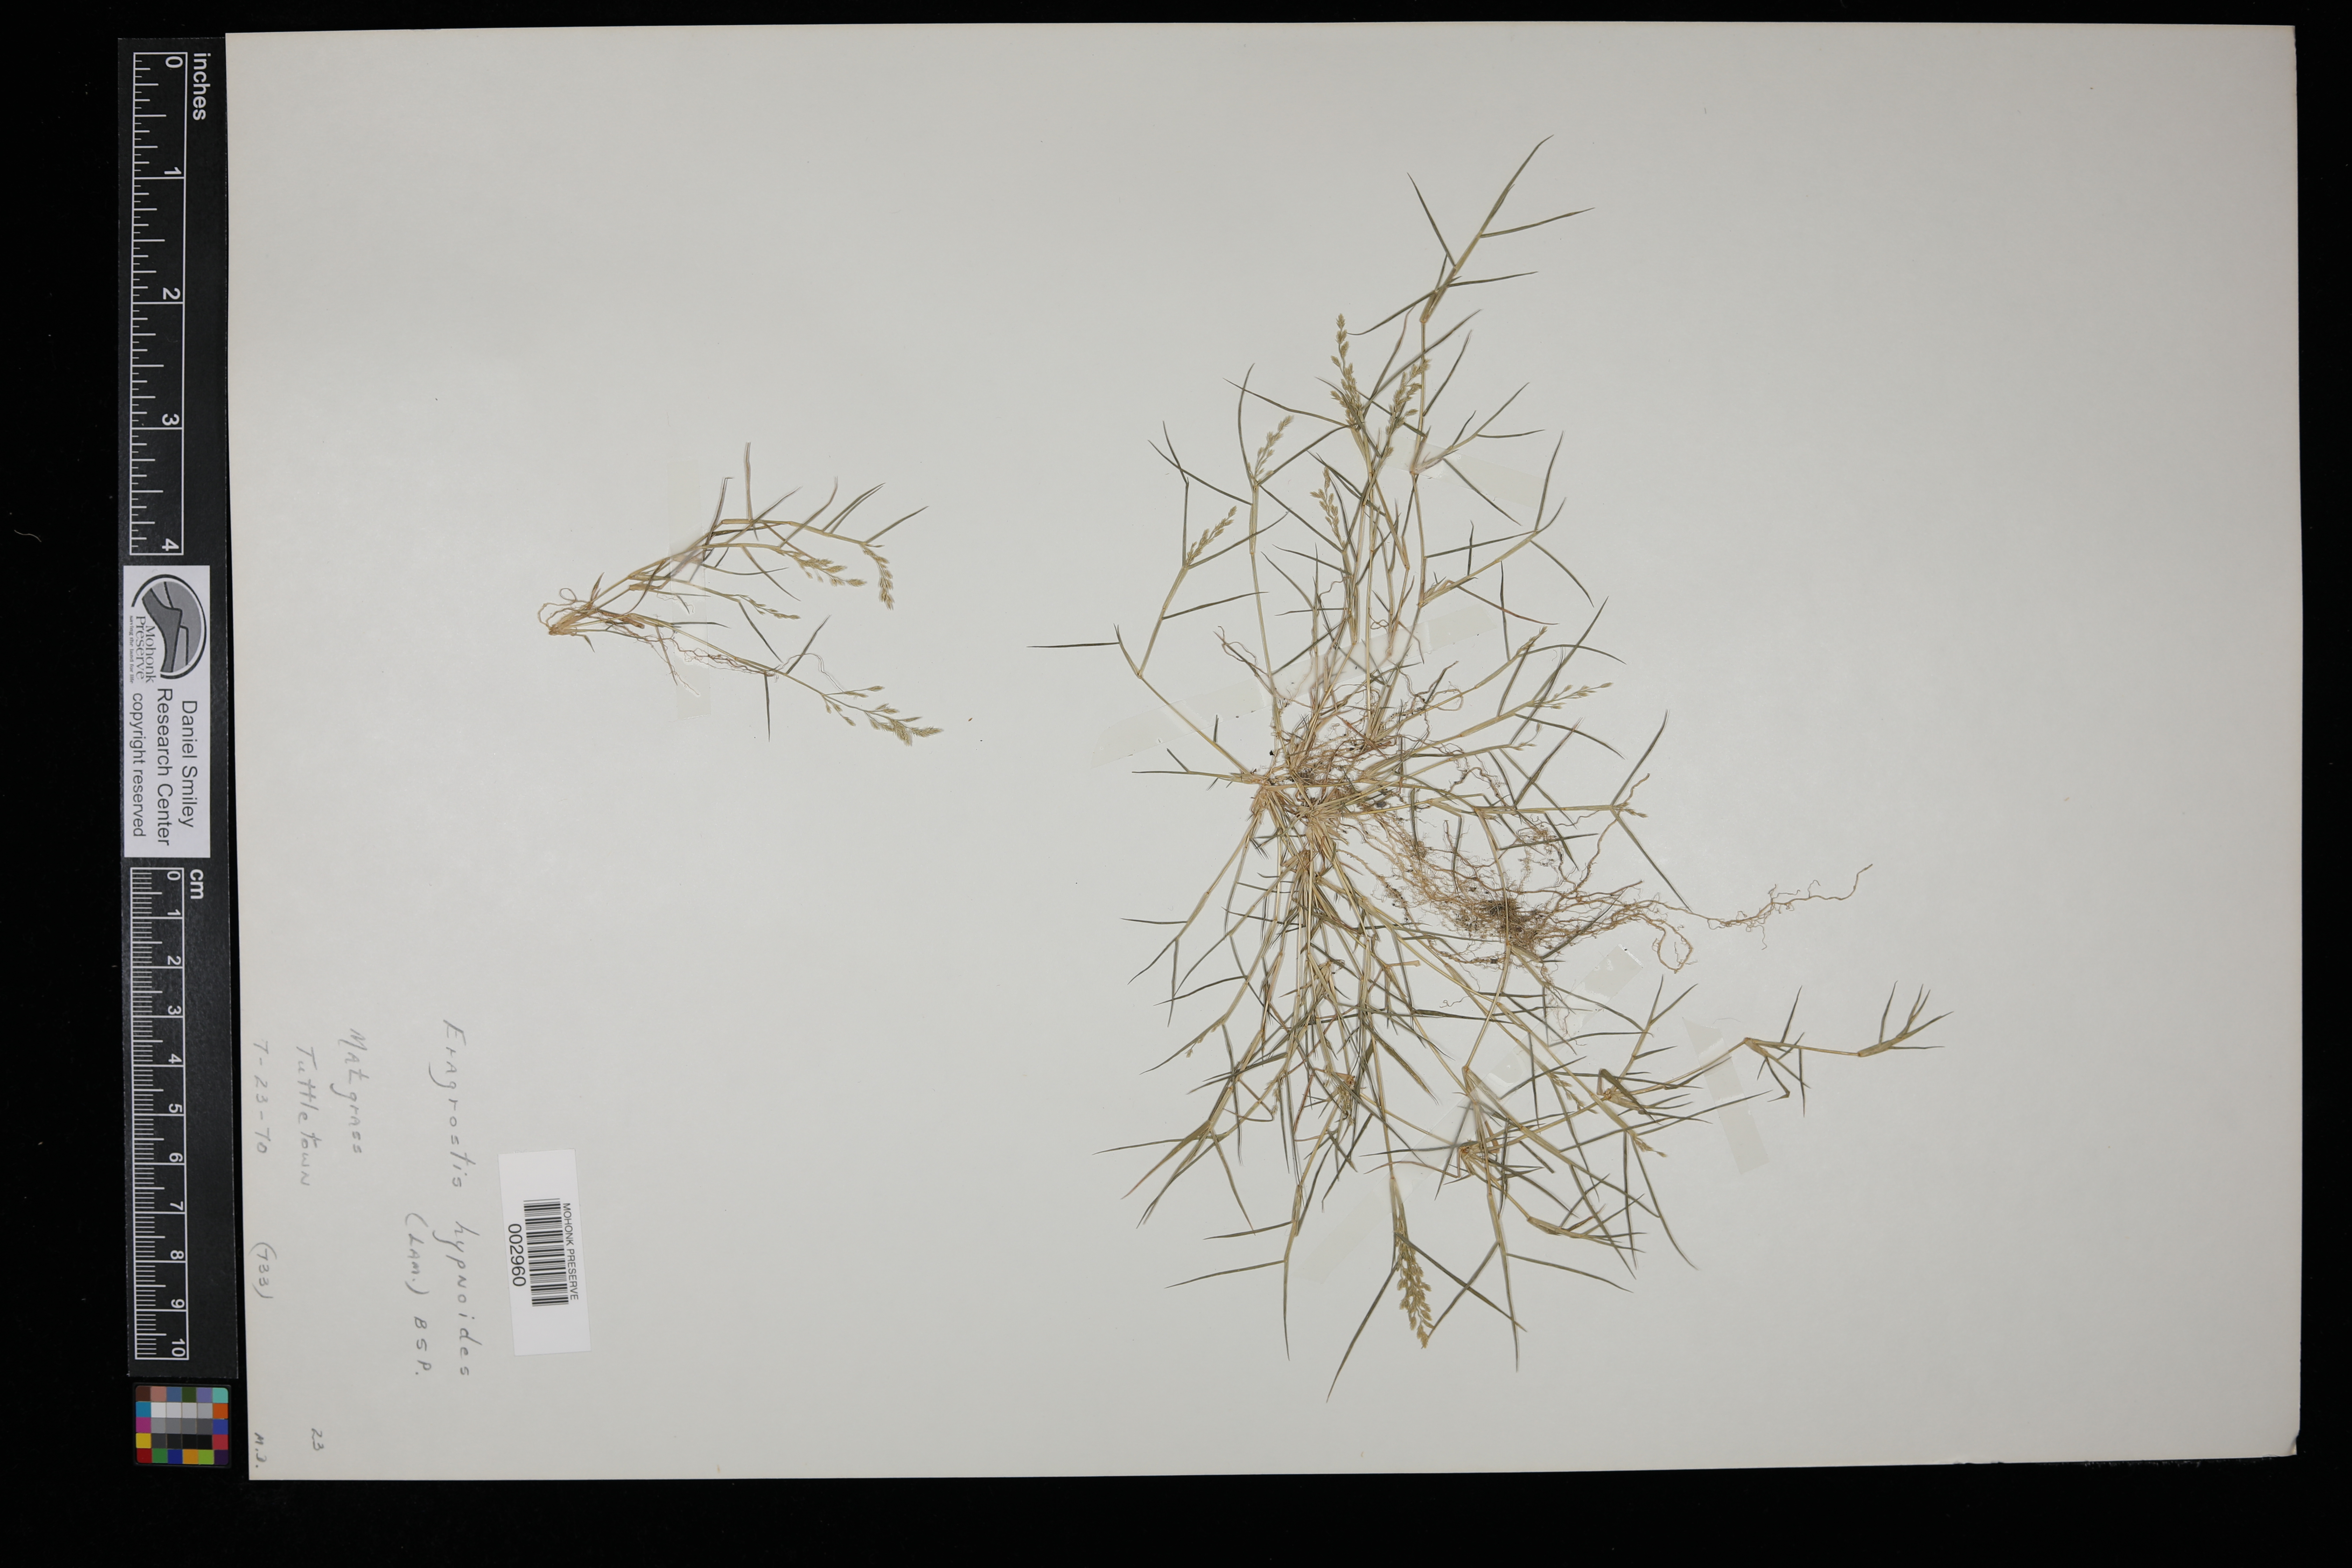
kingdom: Plantae
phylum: Tracheophyta
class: Liliopsida
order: Poales
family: Poaceae
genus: Eragrostis
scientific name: Eragrostis hypnoides
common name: Creeping love grass
